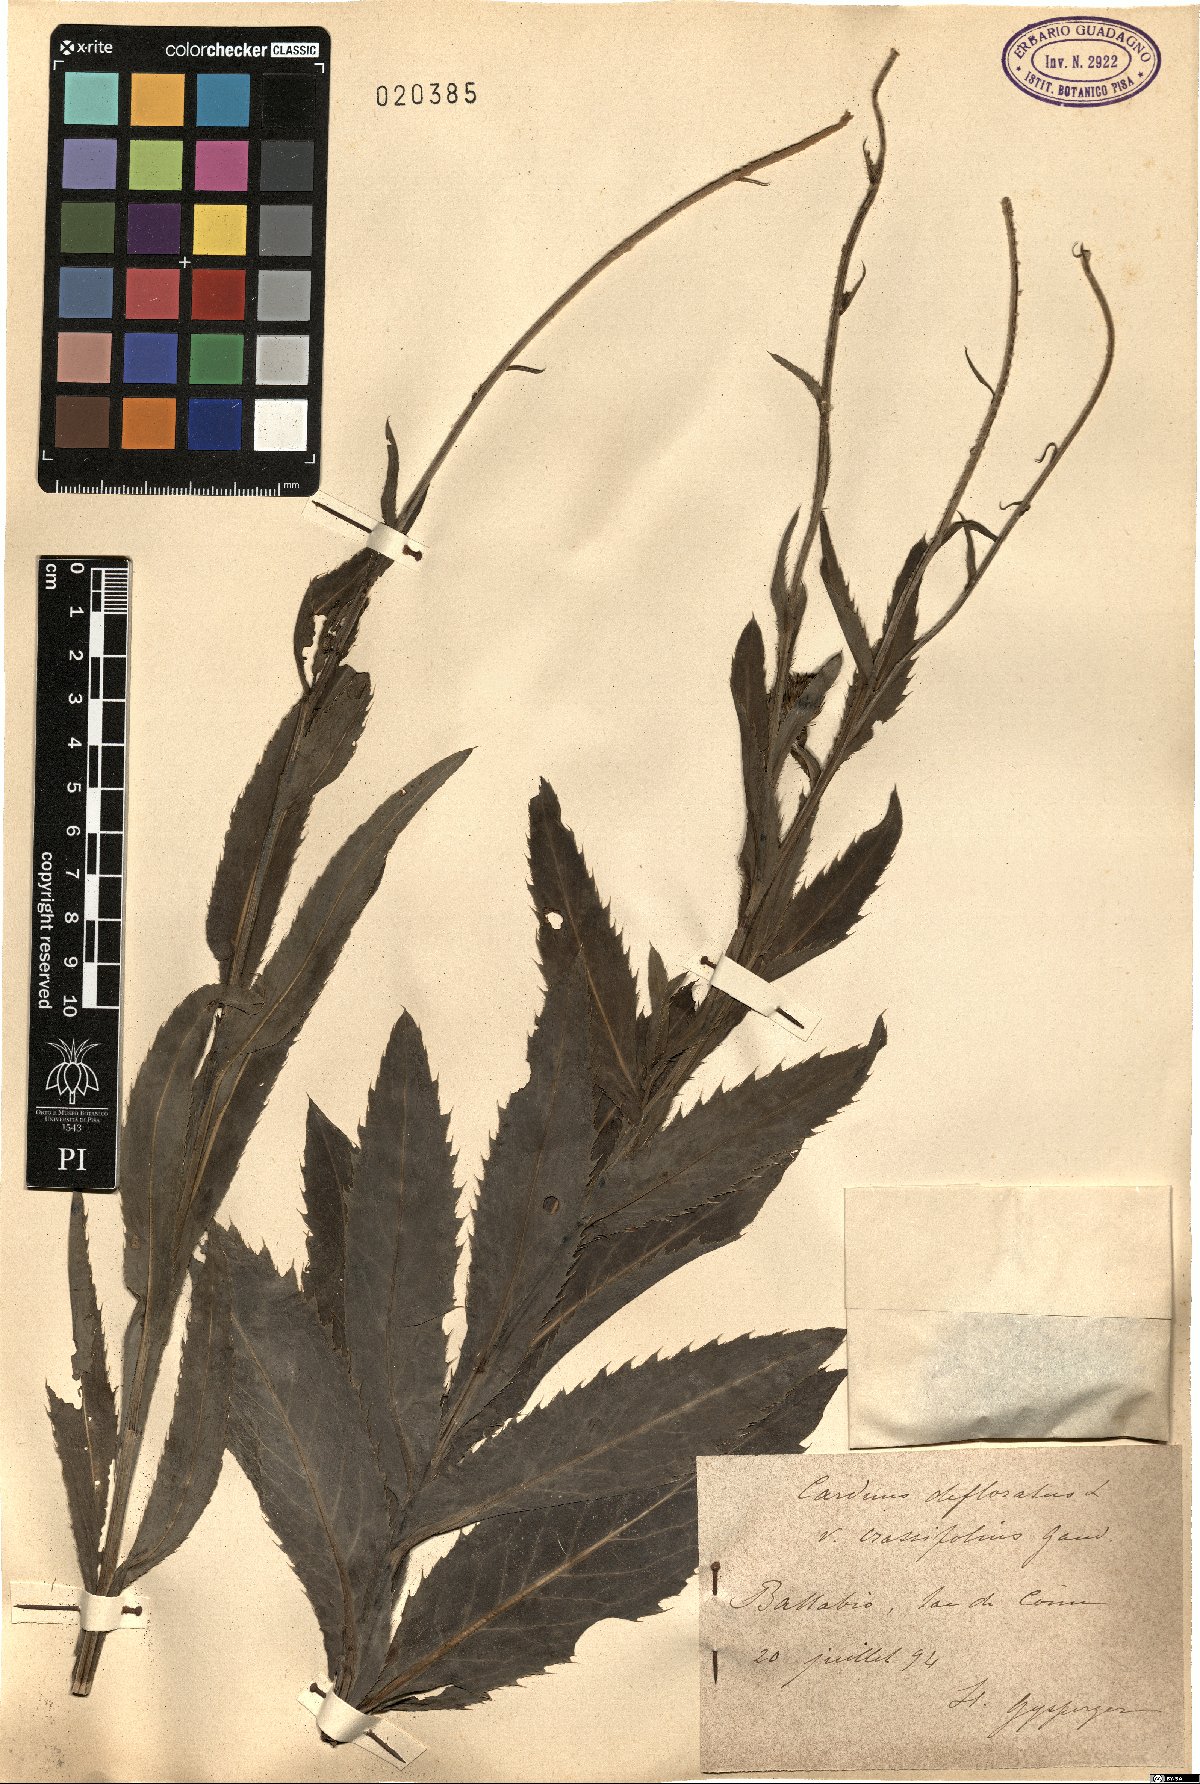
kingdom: Plantae
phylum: Tracheophyta
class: Magnoliopsida
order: Asterales
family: Asteraceae
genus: Carduus
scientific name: Carduus defloratus
